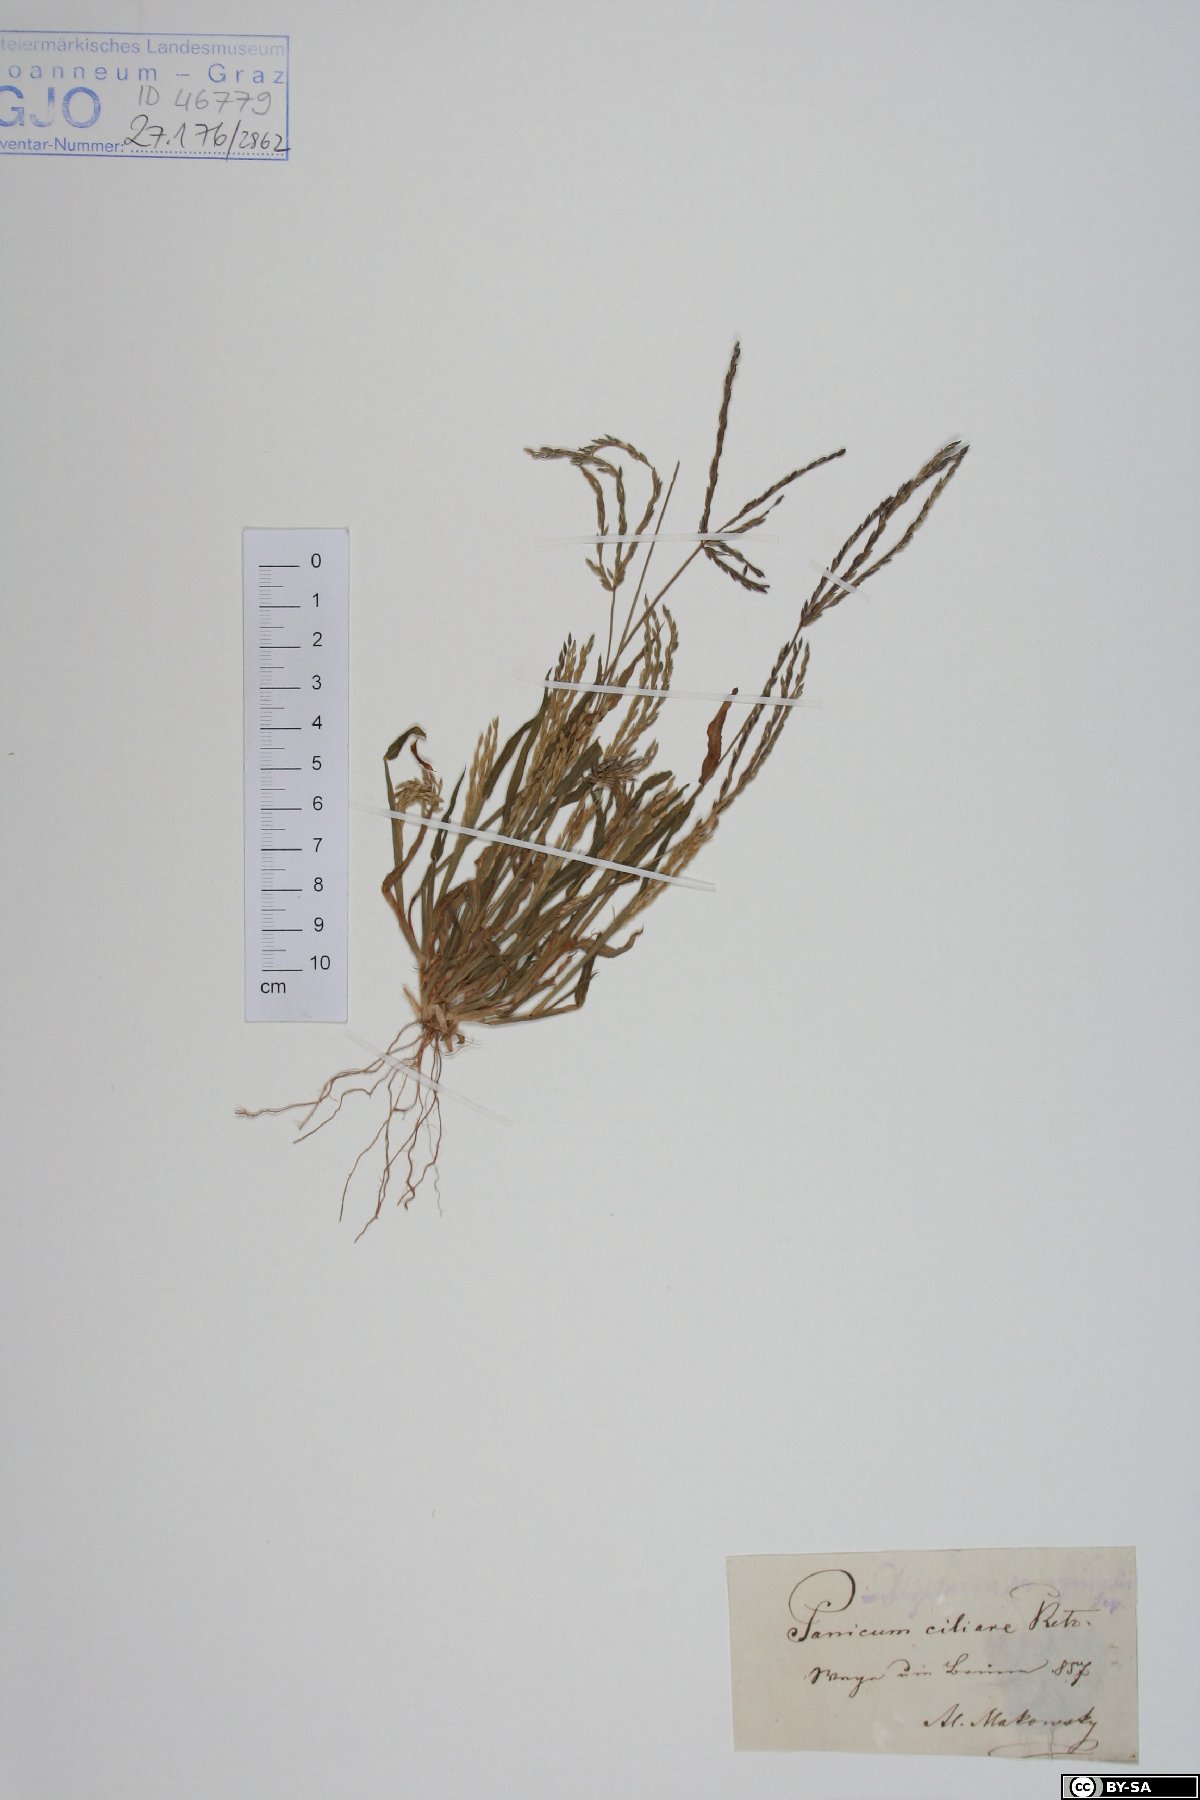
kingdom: Plantae
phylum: Tracheophyta
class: Liliopsida
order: Poales
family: Poaceae
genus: Digitaria
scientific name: Digitaria ciliaris
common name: Tropical finger-grass
